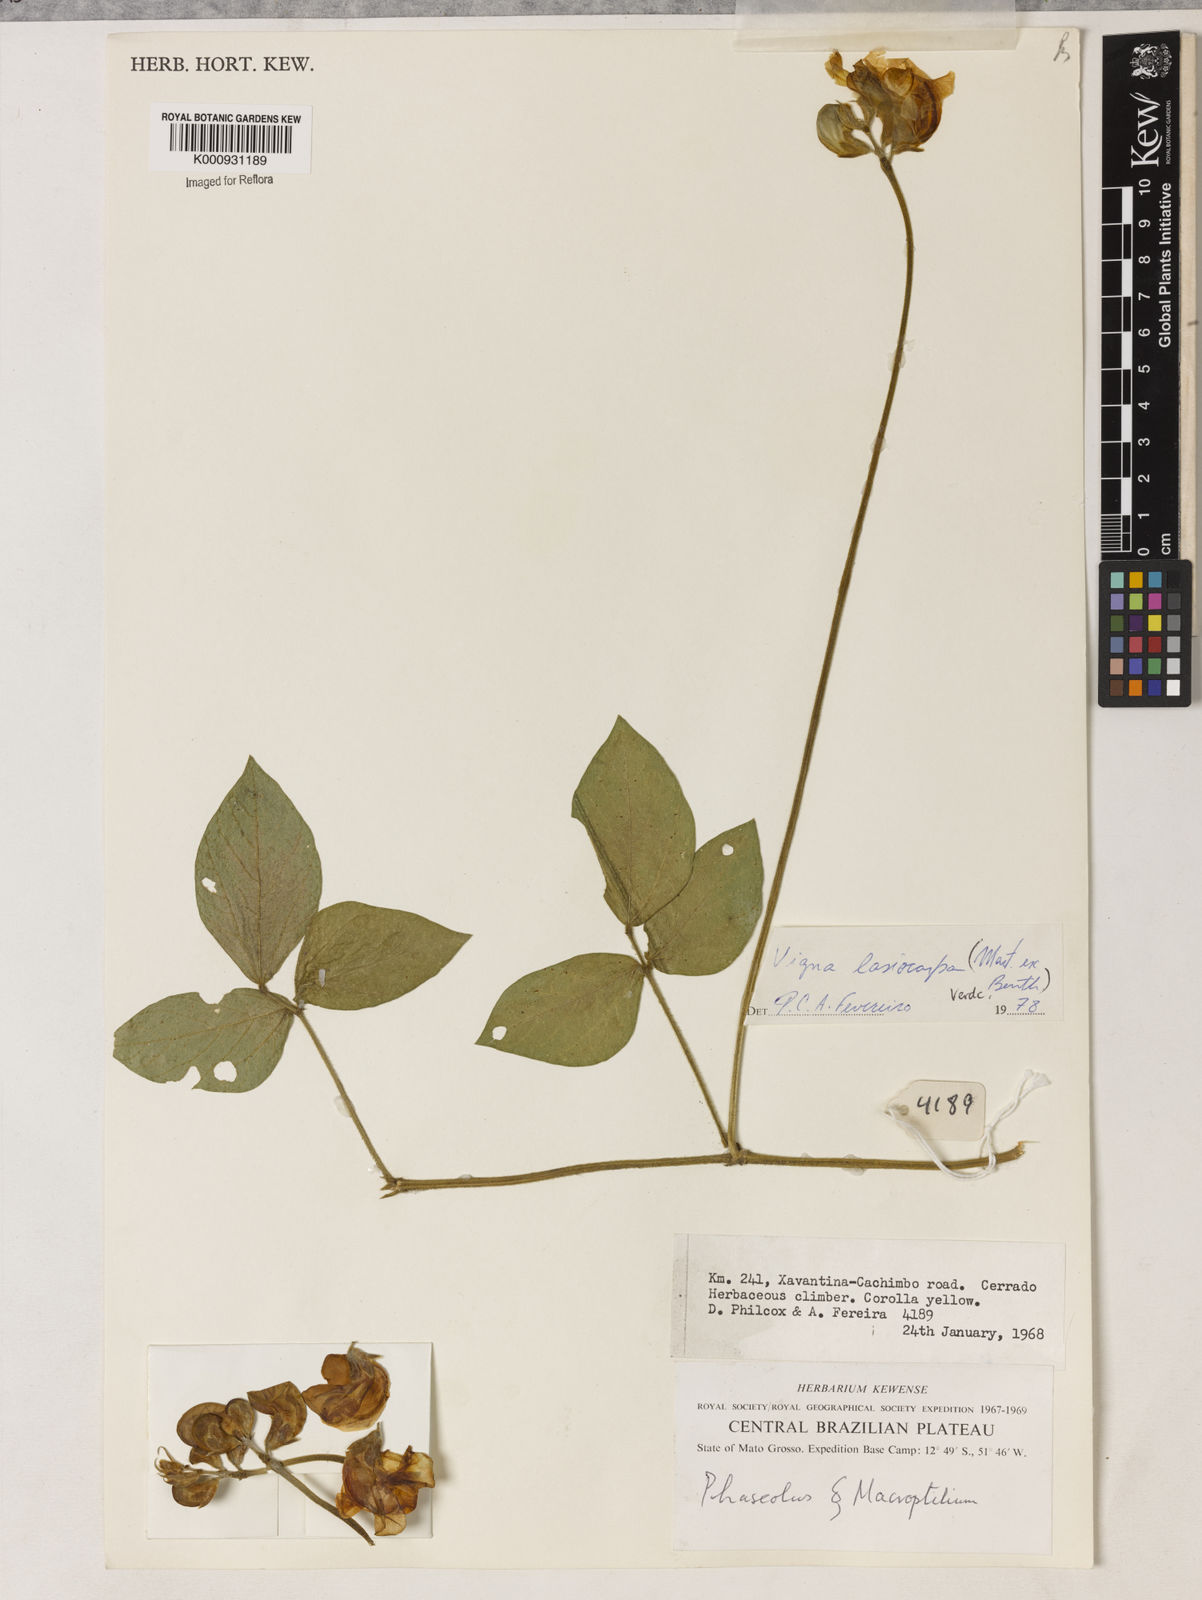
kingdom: Plantae
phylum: Tracheophyta
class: Magnoliopsida
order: Fabales
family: Fabaceae
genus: Vigna
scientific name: Vigna lasiocarpa
